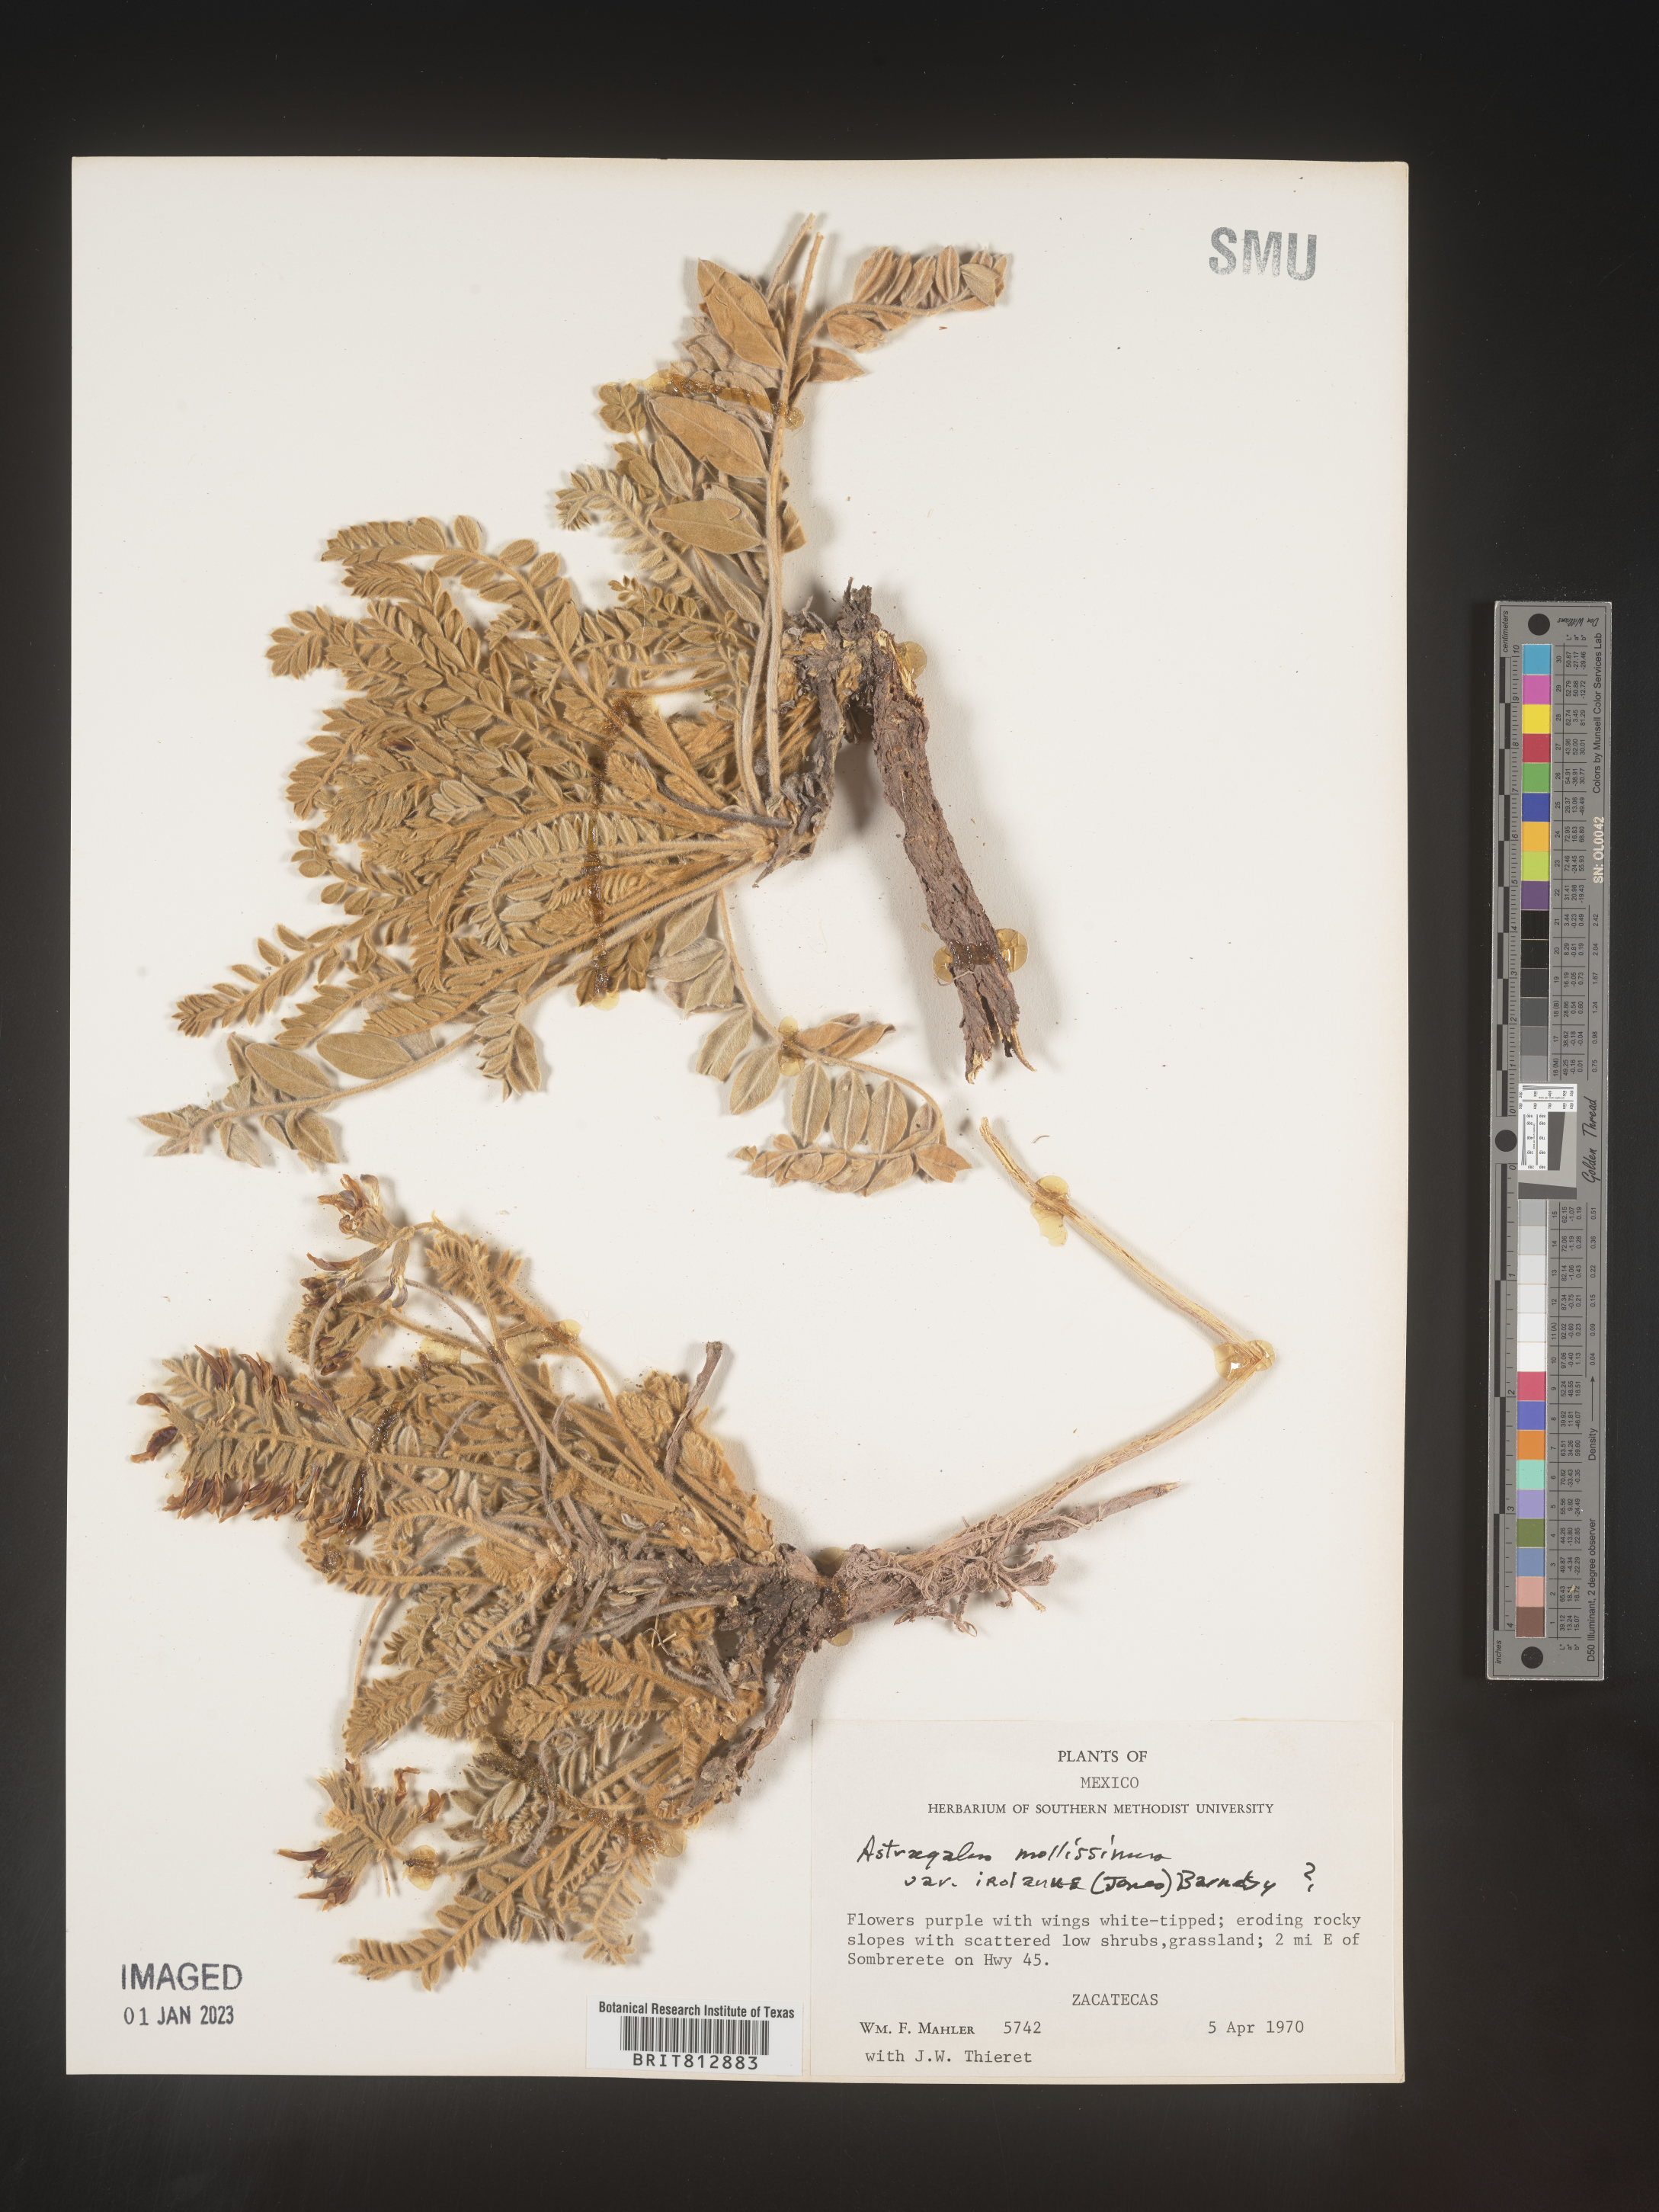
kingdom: Plantae
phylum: Tracheophyta
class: Magnoliopsida
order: Fabales
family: Fabaceae
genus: Astragalus
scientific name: Astragalus
